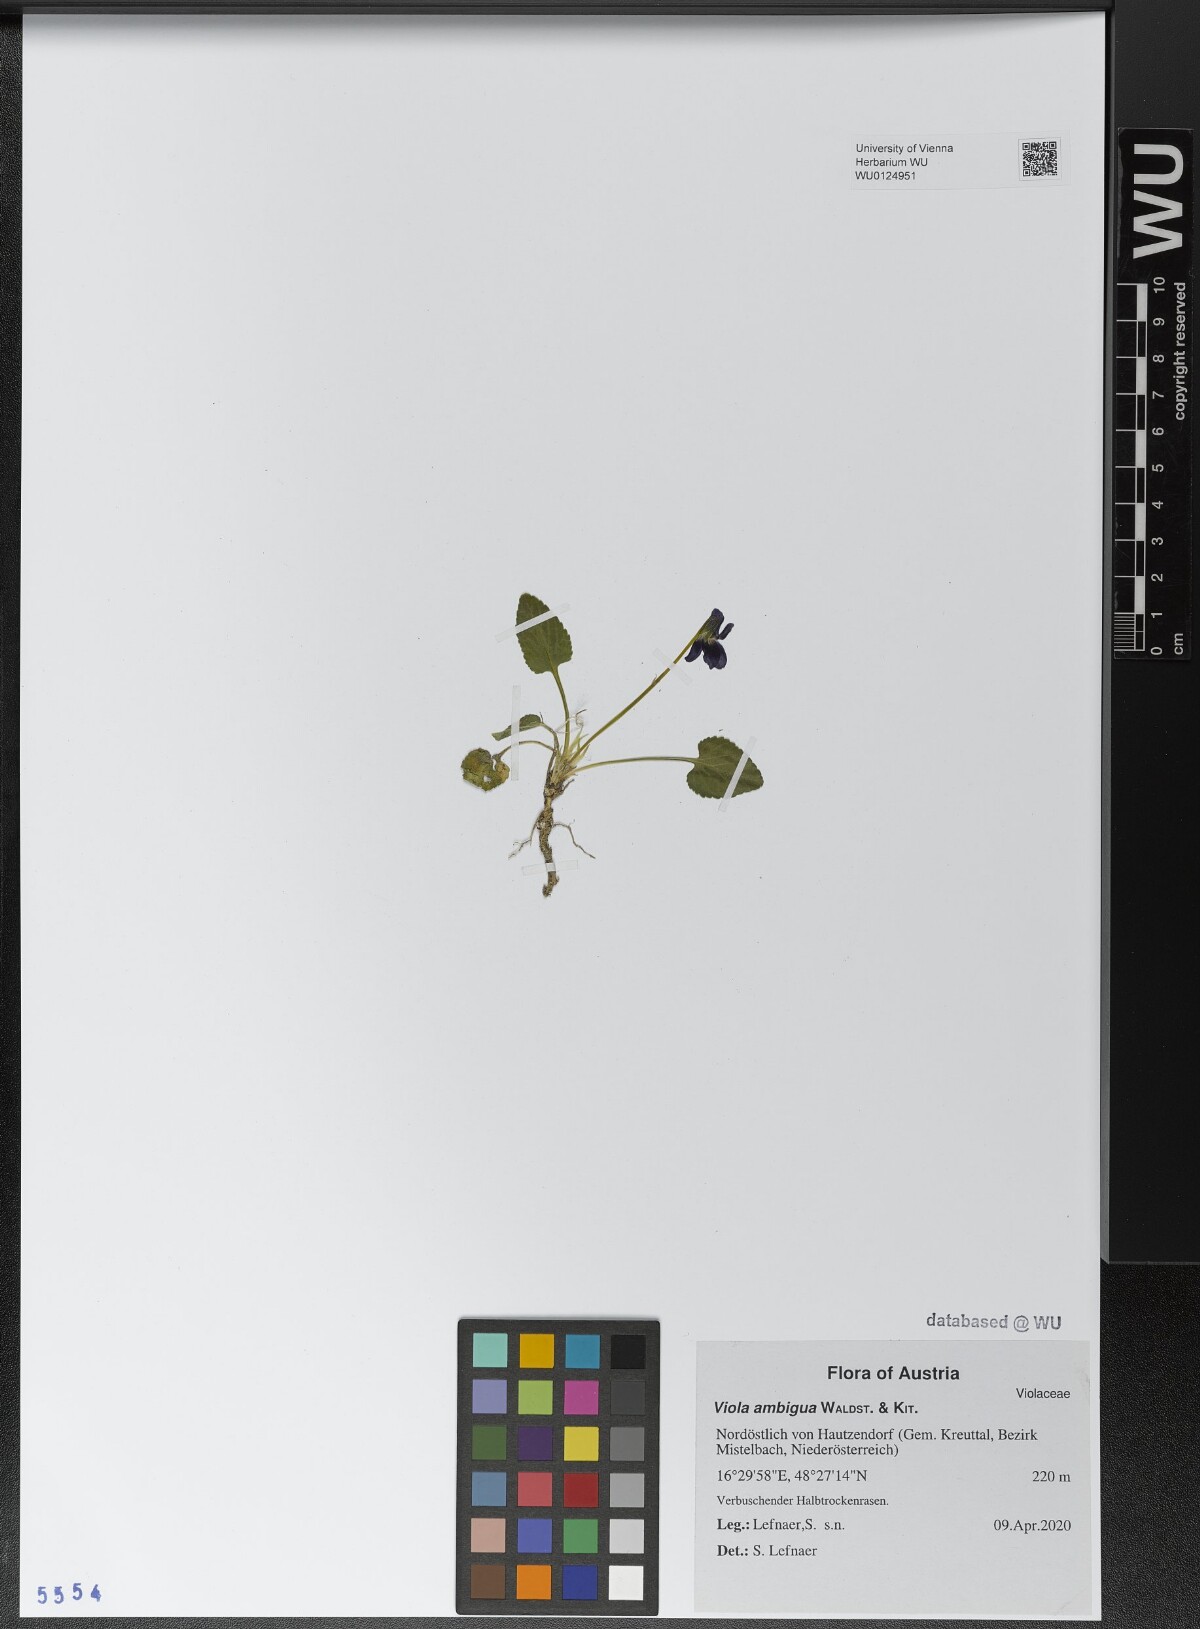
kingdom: Plantae
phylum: Tracheophyta
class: Magnoliopsida
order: Malpighiales
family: Violaceae
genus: Viola
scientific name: Viola ambigua
